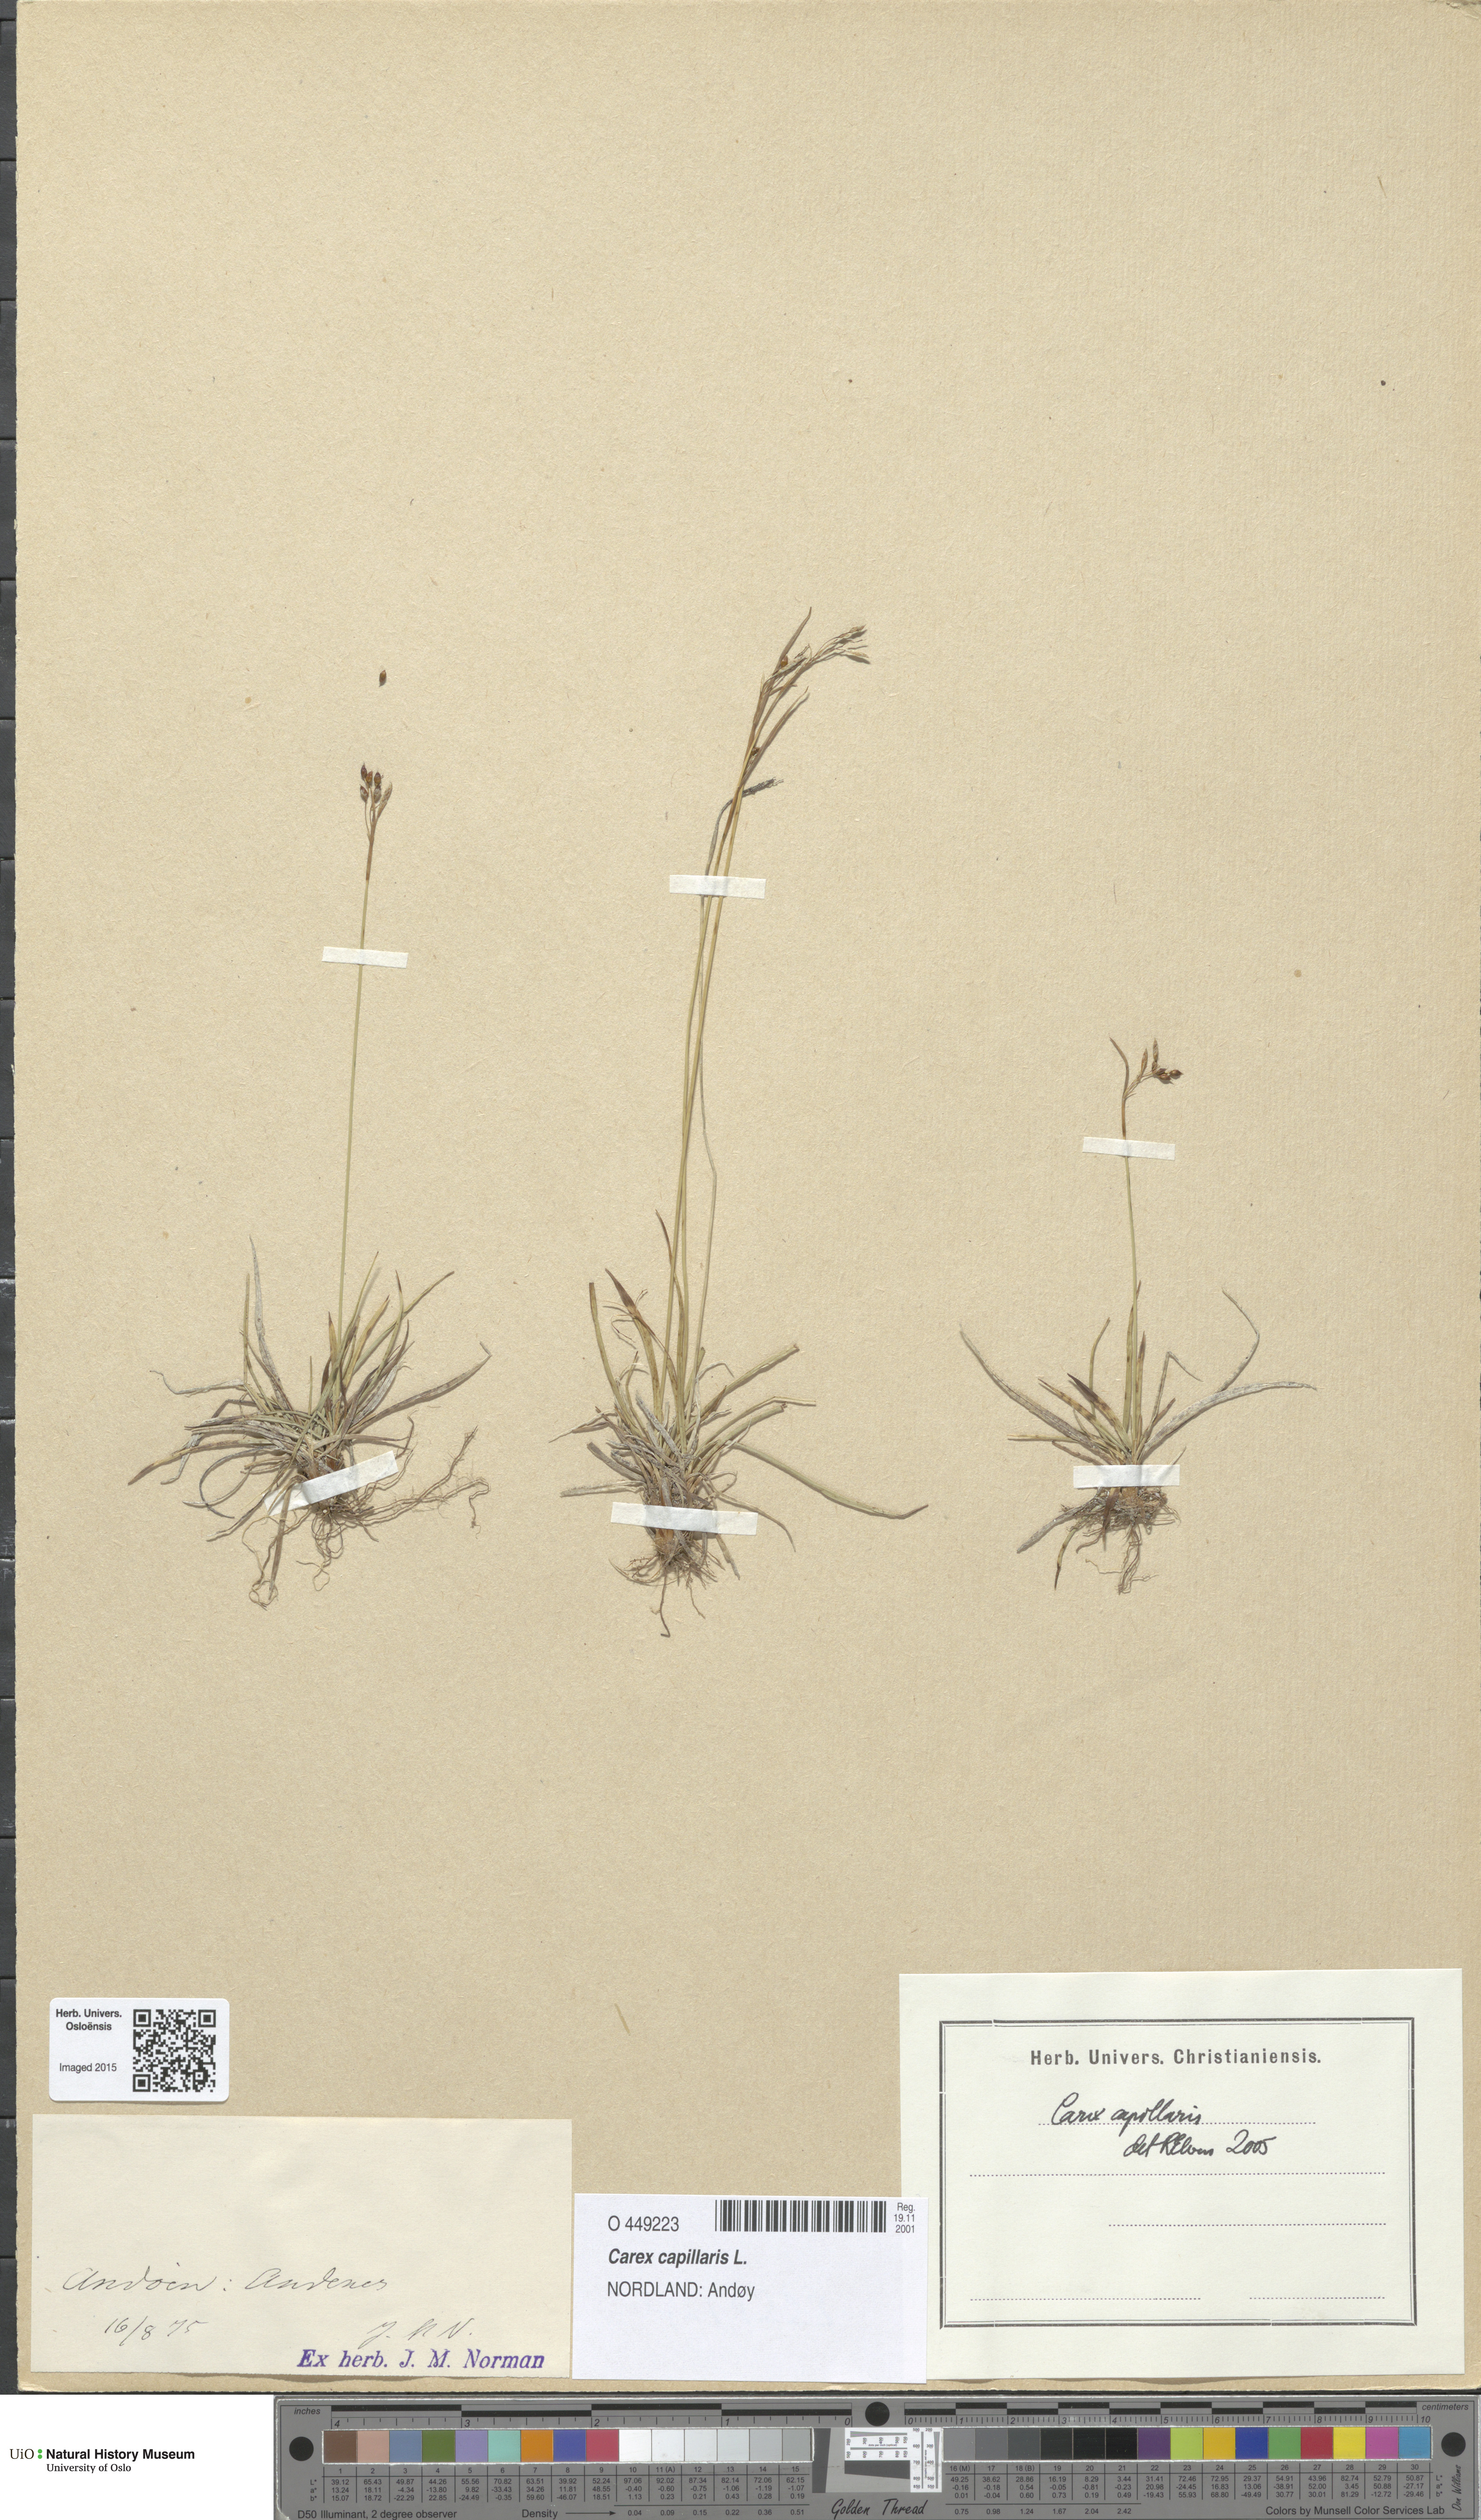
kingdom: Plantae
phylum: Tracheophyta
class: Liliopsida
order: Poales
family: Cyperaceae
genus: Carex
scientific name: Carex capillaris
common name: Hair sedge
